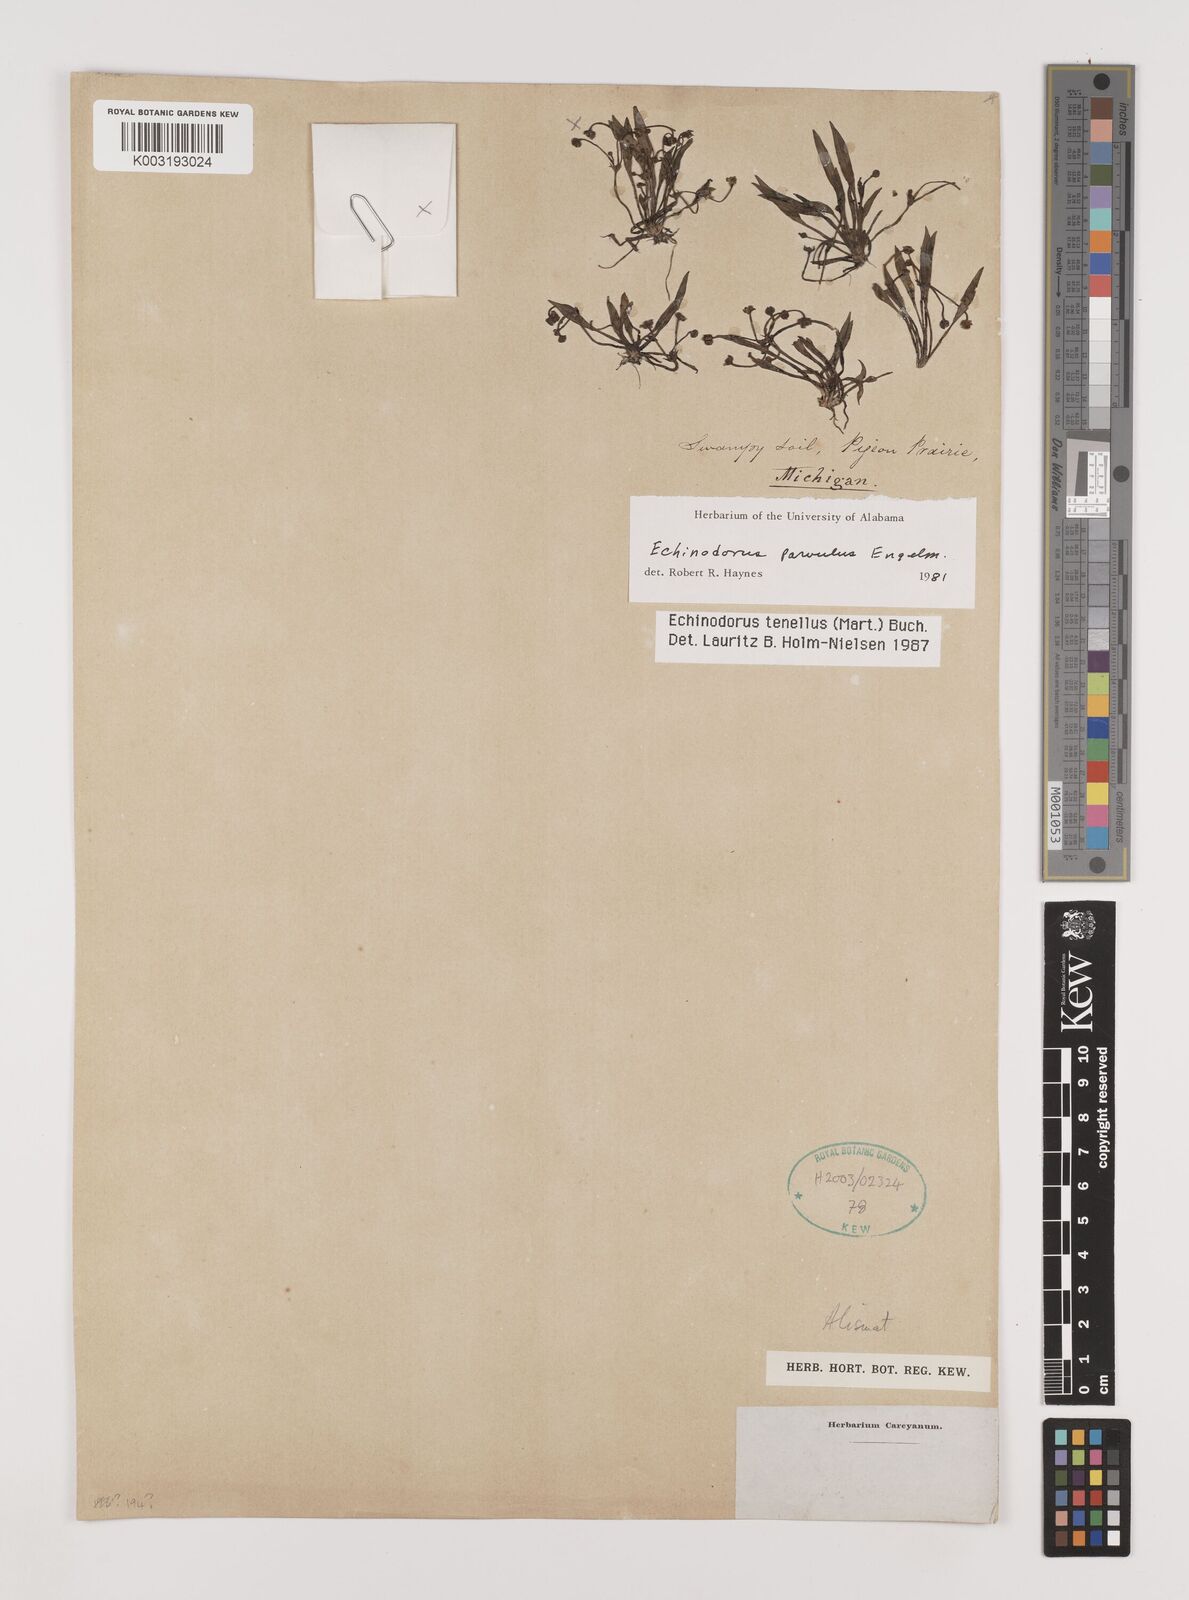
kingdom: Plantae
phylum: Tracheophyta
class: Liliopsida
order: Alismatales
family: Alismataceae
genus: Helanthium
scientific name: Helanthium tenellum
